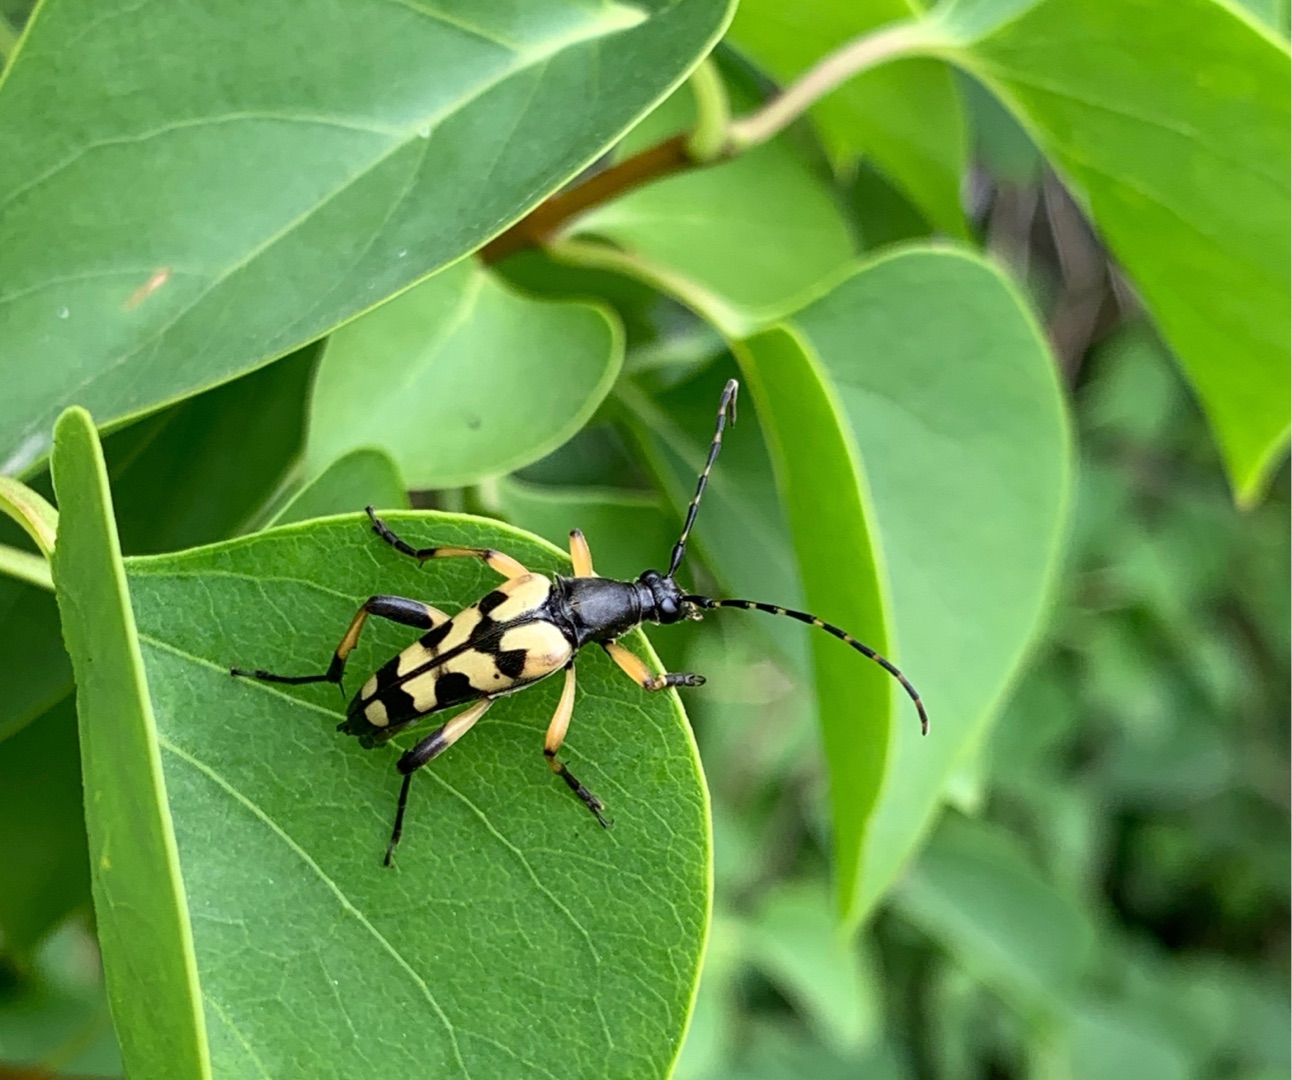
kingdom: Animalia
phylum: Arthropoda
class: Insecta
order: Coleoptera
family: Cerambycidae
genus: Rutpela
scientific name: Rutpela maculata
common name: Sydlig blomsterbuk
